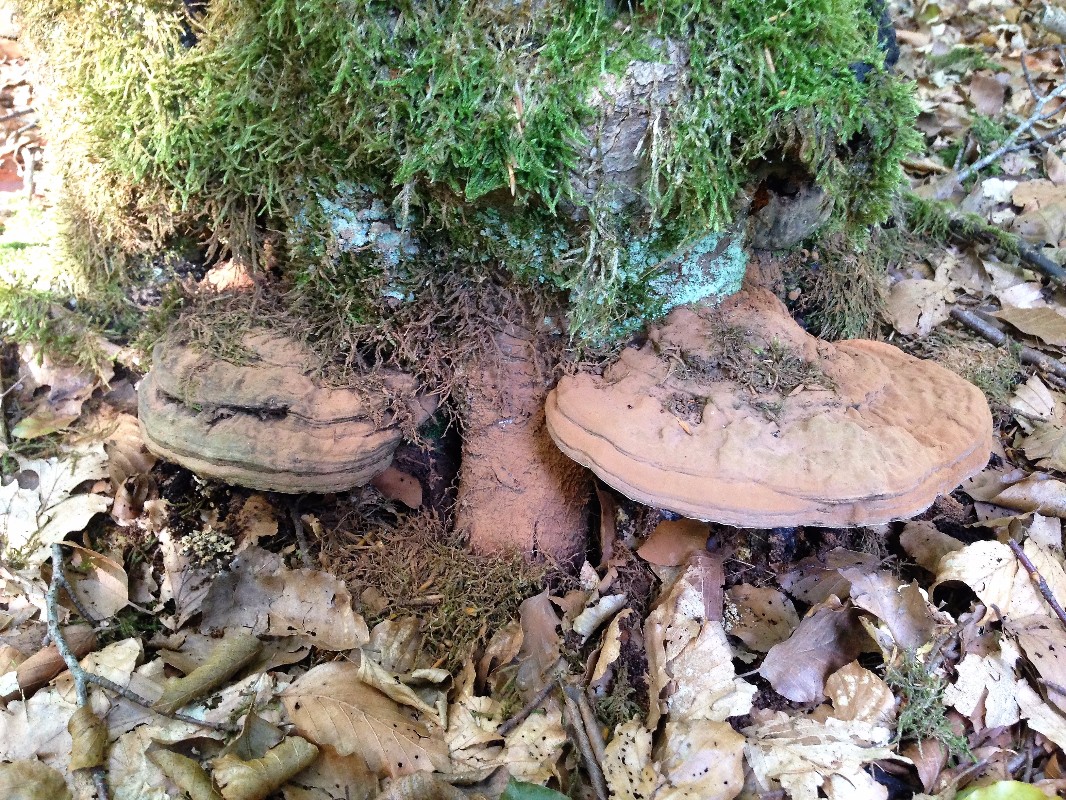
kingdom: Fungi
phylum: Basidiomycota
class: Agaricomycetes
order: Polyporales
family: Polyporaceae
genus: Ganoderma
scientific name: Ganoderma applanatum
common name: flad lakporesvamp
